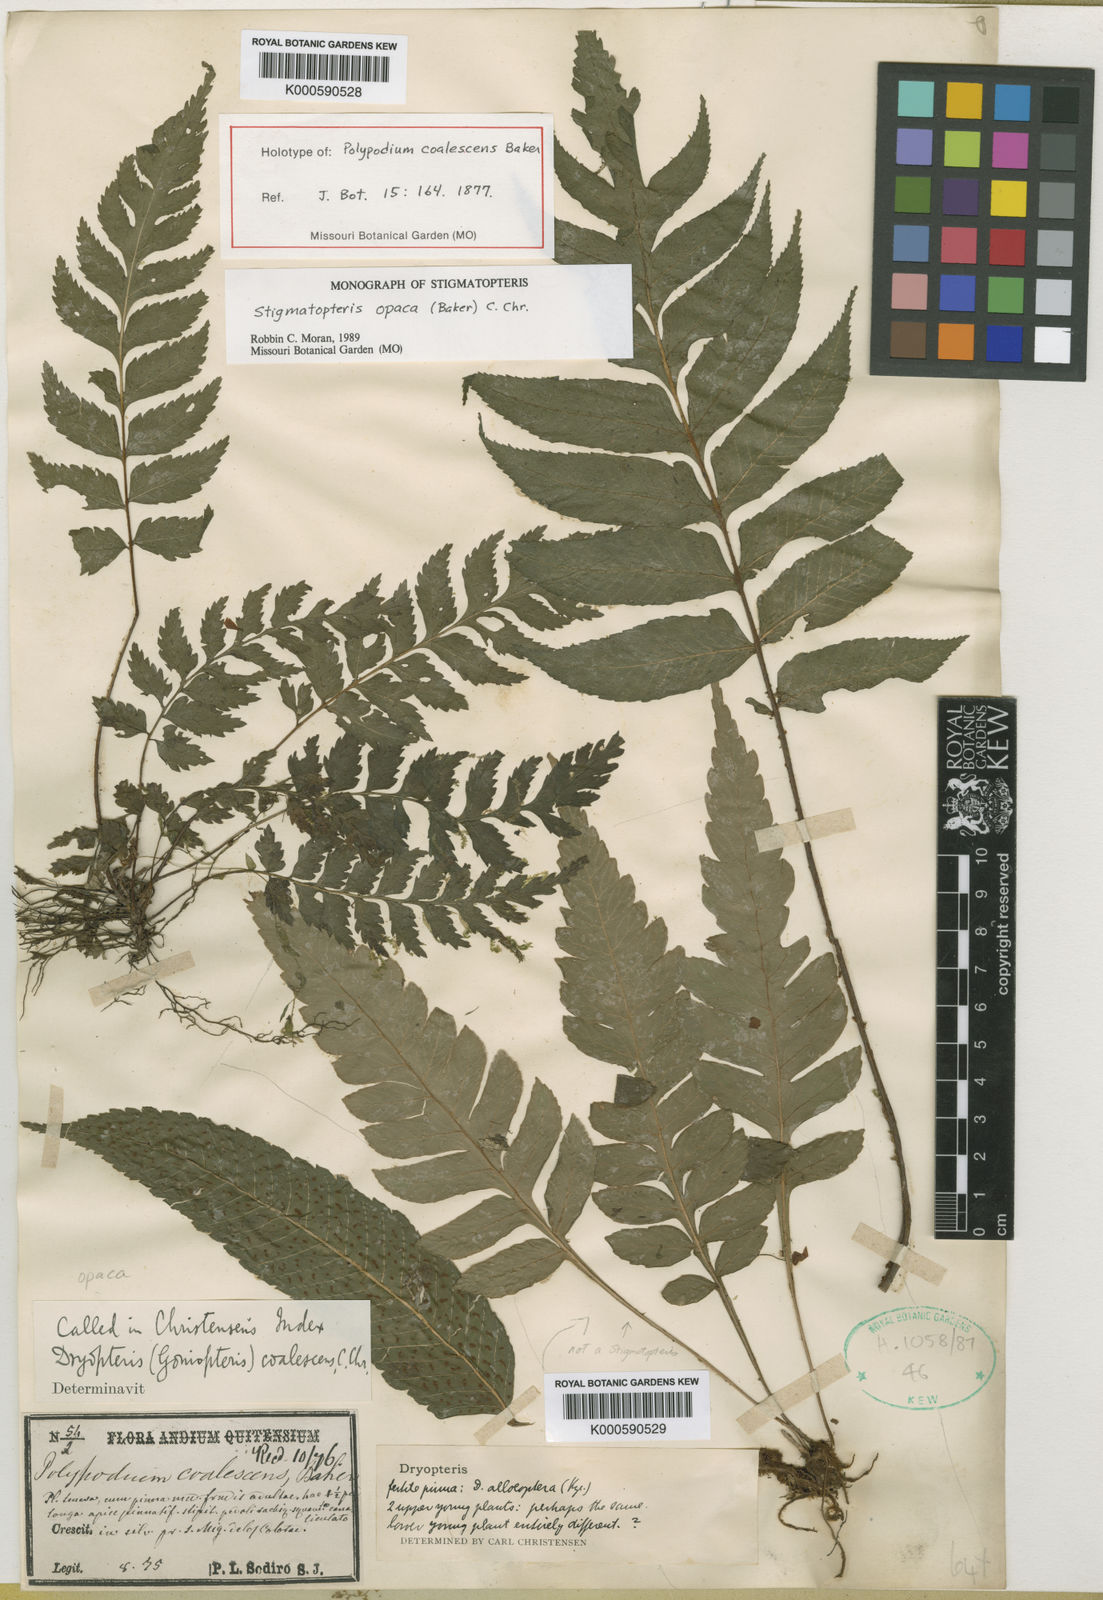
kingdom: Plantae
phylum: Tracheophyta
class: Polypodiopsida
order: Polypodiales
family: Dryopteridaceae
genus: Stigmatopteris
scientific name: Stigmatopteris opaca
